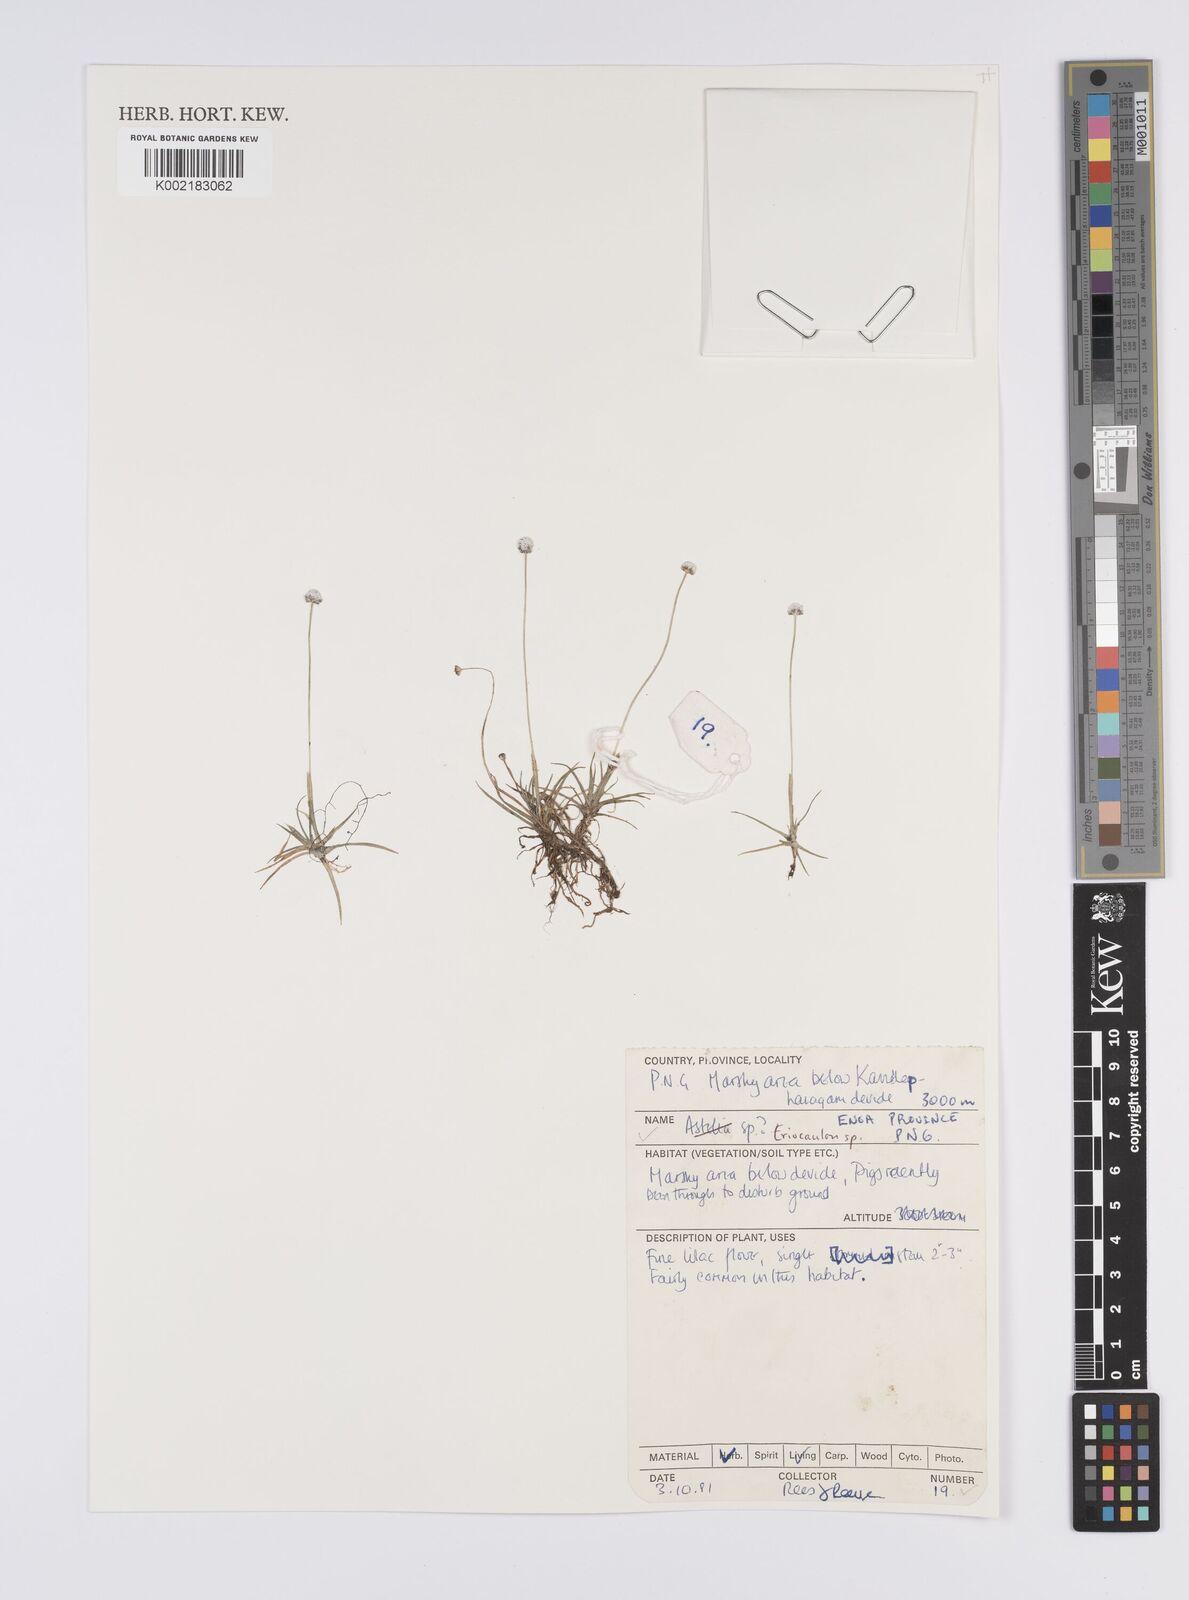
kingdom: Plantae
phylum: Tracheophyta
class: Liliopsida
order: Poales
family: Eriocaulaceae
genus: Eriocaulon
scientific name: Eriocaulon
